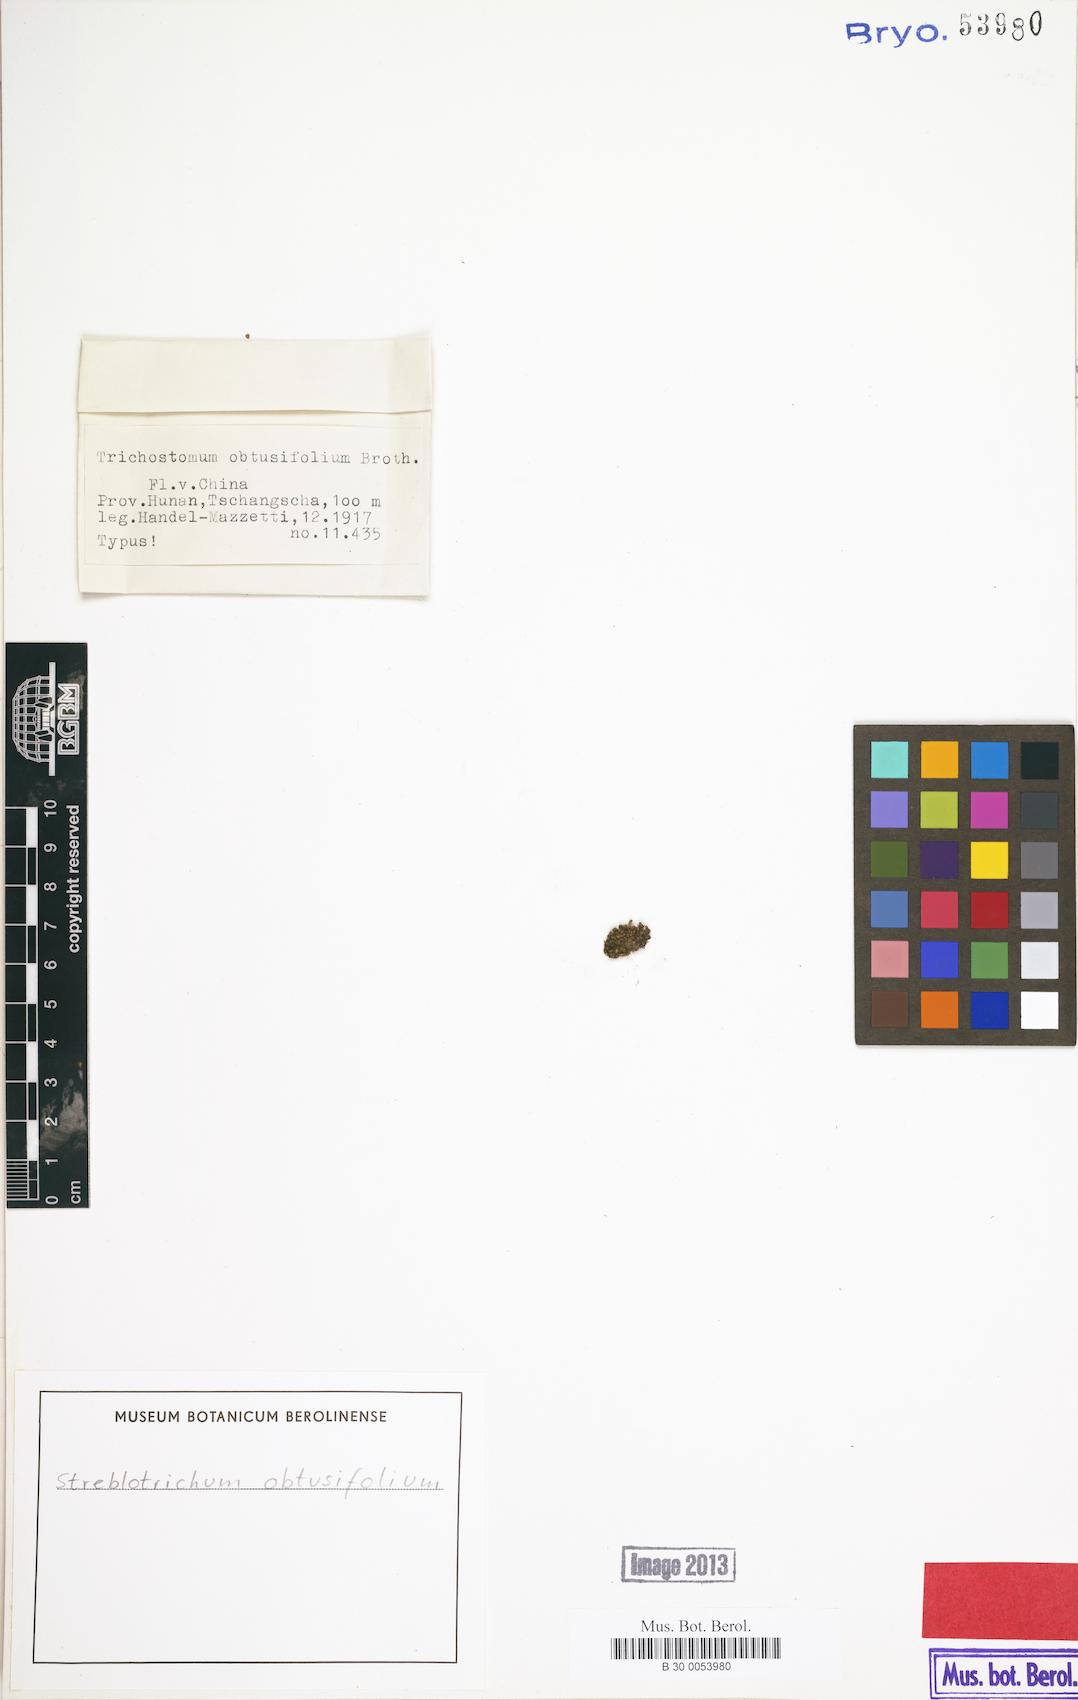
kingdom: Plantae
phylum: Bryophyta
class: Bryopsida
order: Pottiales
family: Pottiaceae
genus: Barbula
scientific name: Barbula chenia
